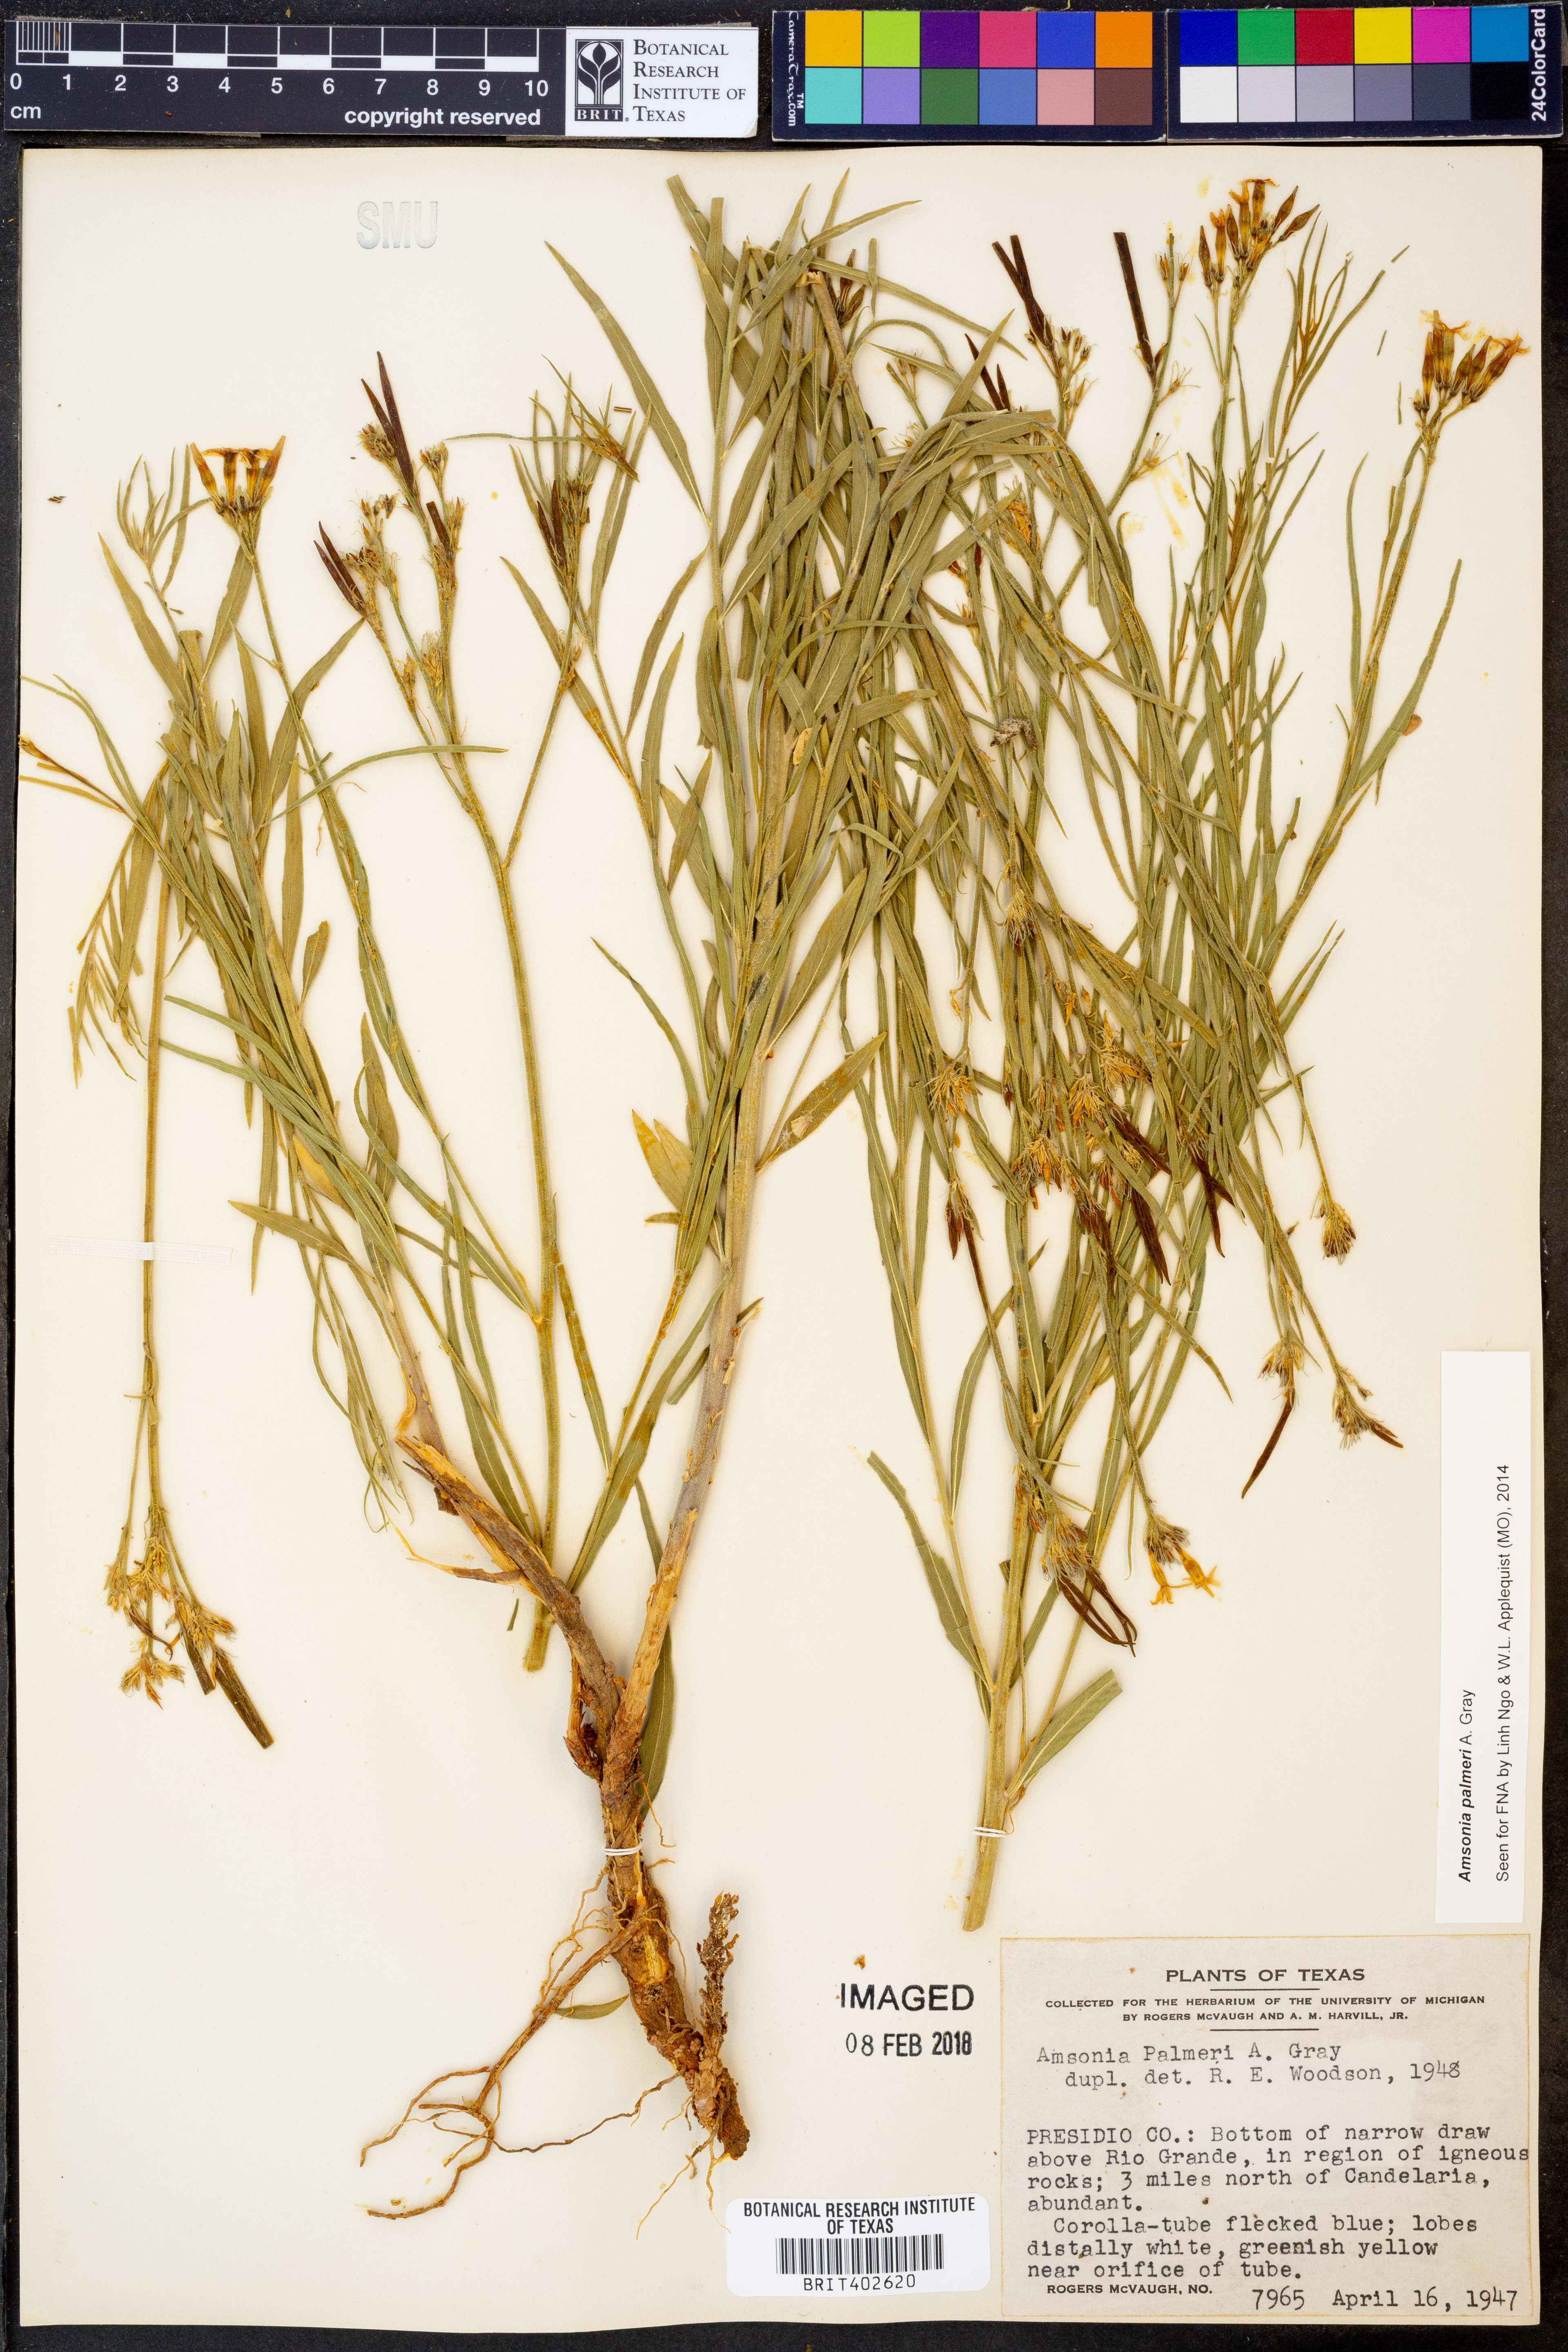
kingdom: Plantae
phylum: Tracheophyta
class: Magnoliopsida
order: Gentianales
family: Apocynaceae
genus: Amsonia
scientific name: Amsonia palmeri
